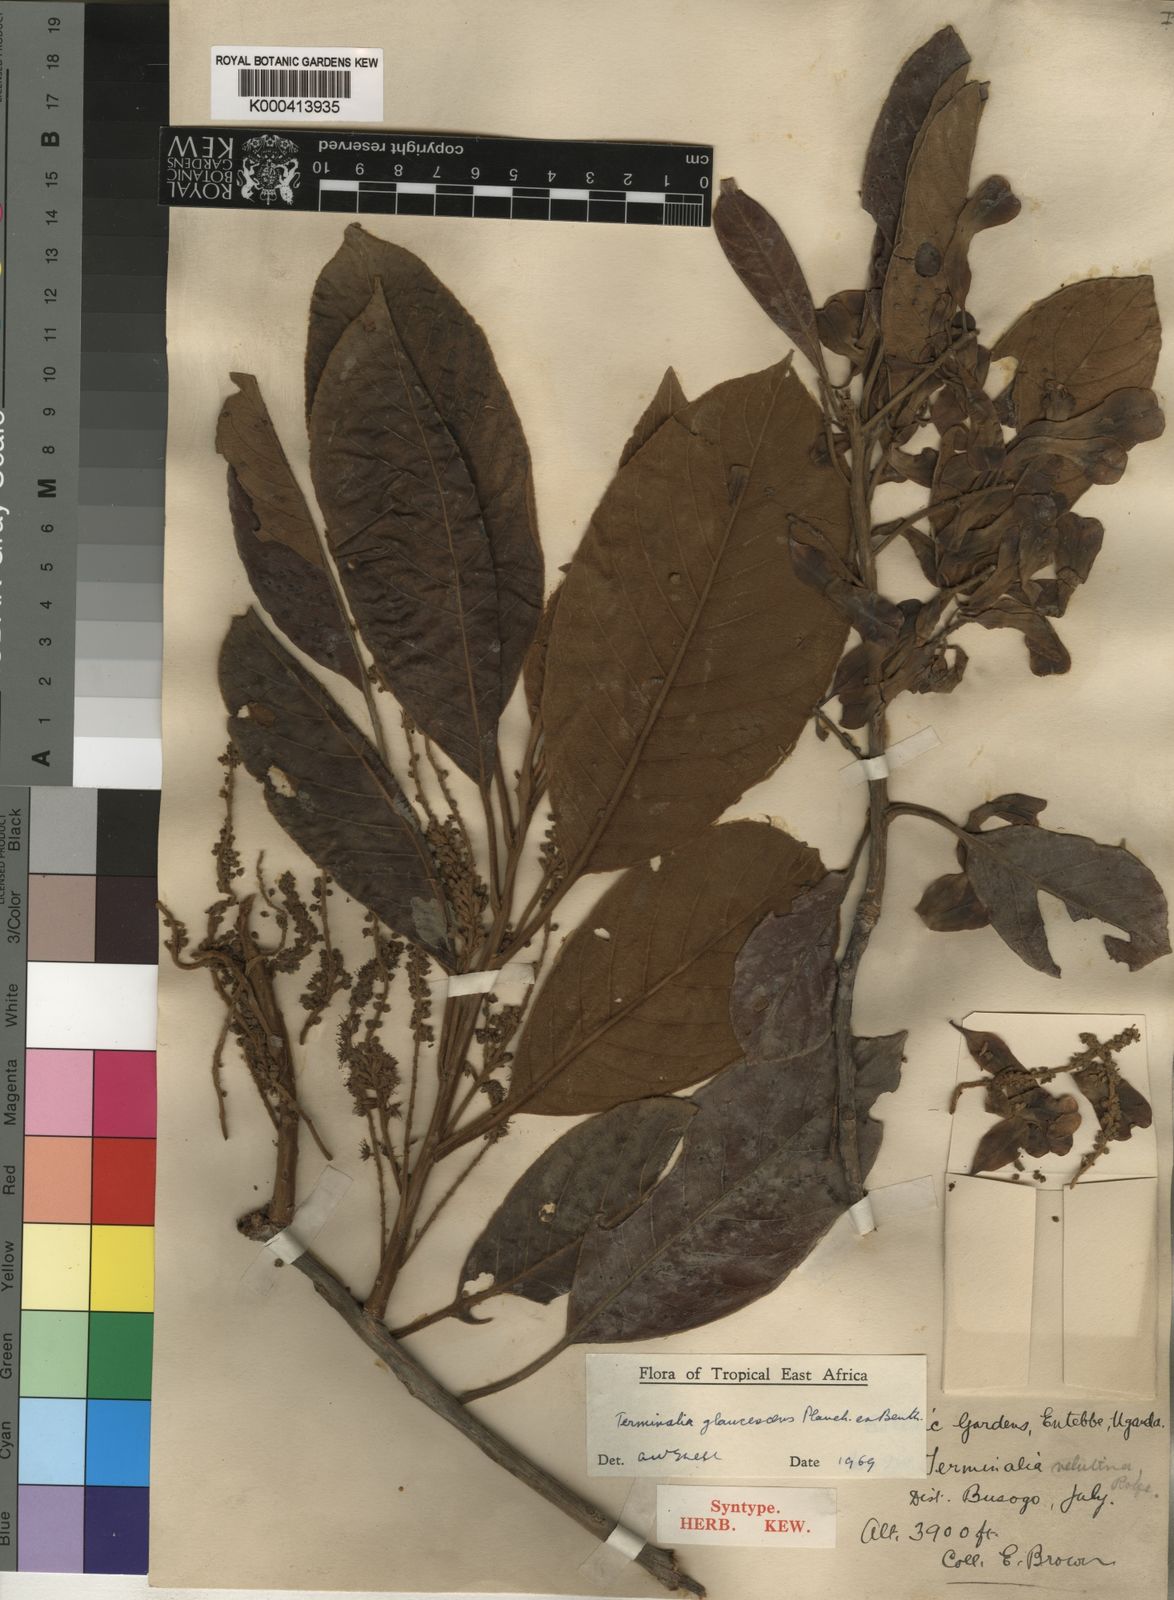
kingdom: Plantae
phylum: Tracheophyta
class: Magnoliopsida
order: Myrtales
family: Combretaceae
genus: Terminalia
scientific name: Terminalia schimperiana
